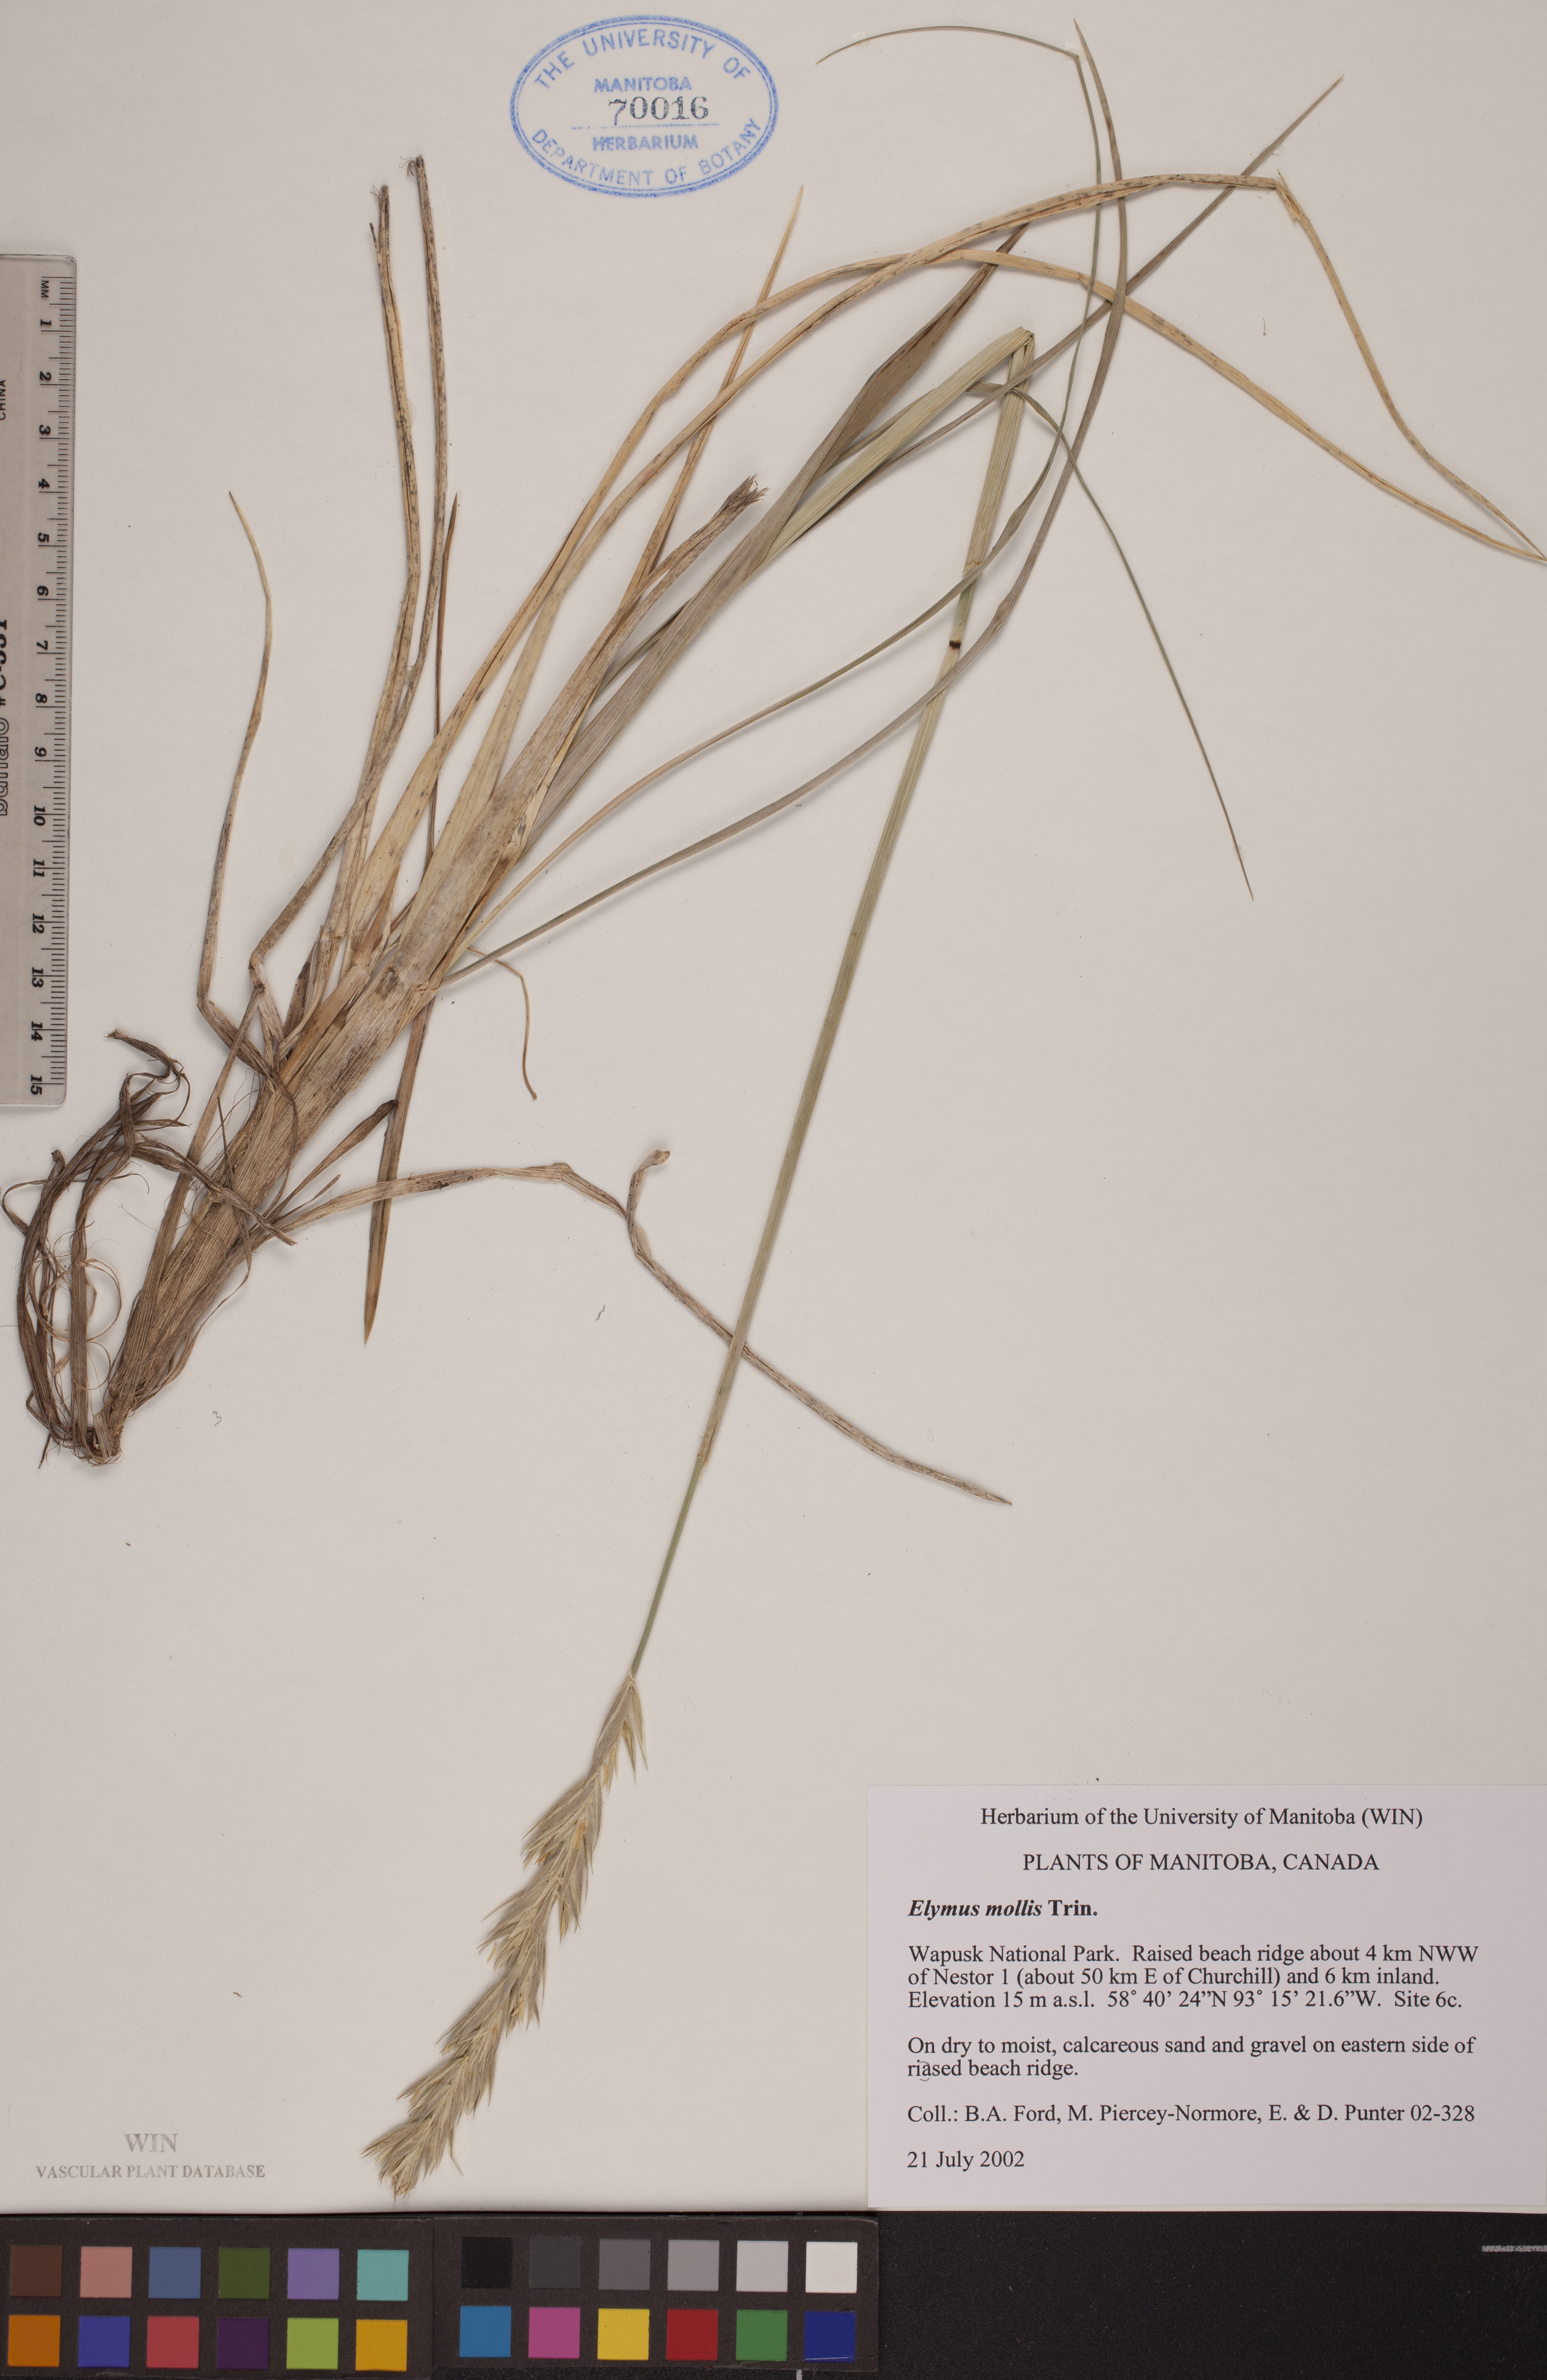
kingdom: Plantae
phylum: Tracheophyta
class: Liliopsida
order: Poales
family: Poaceae
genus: Leymus
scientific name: Leymus mollis
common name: American dune grass
